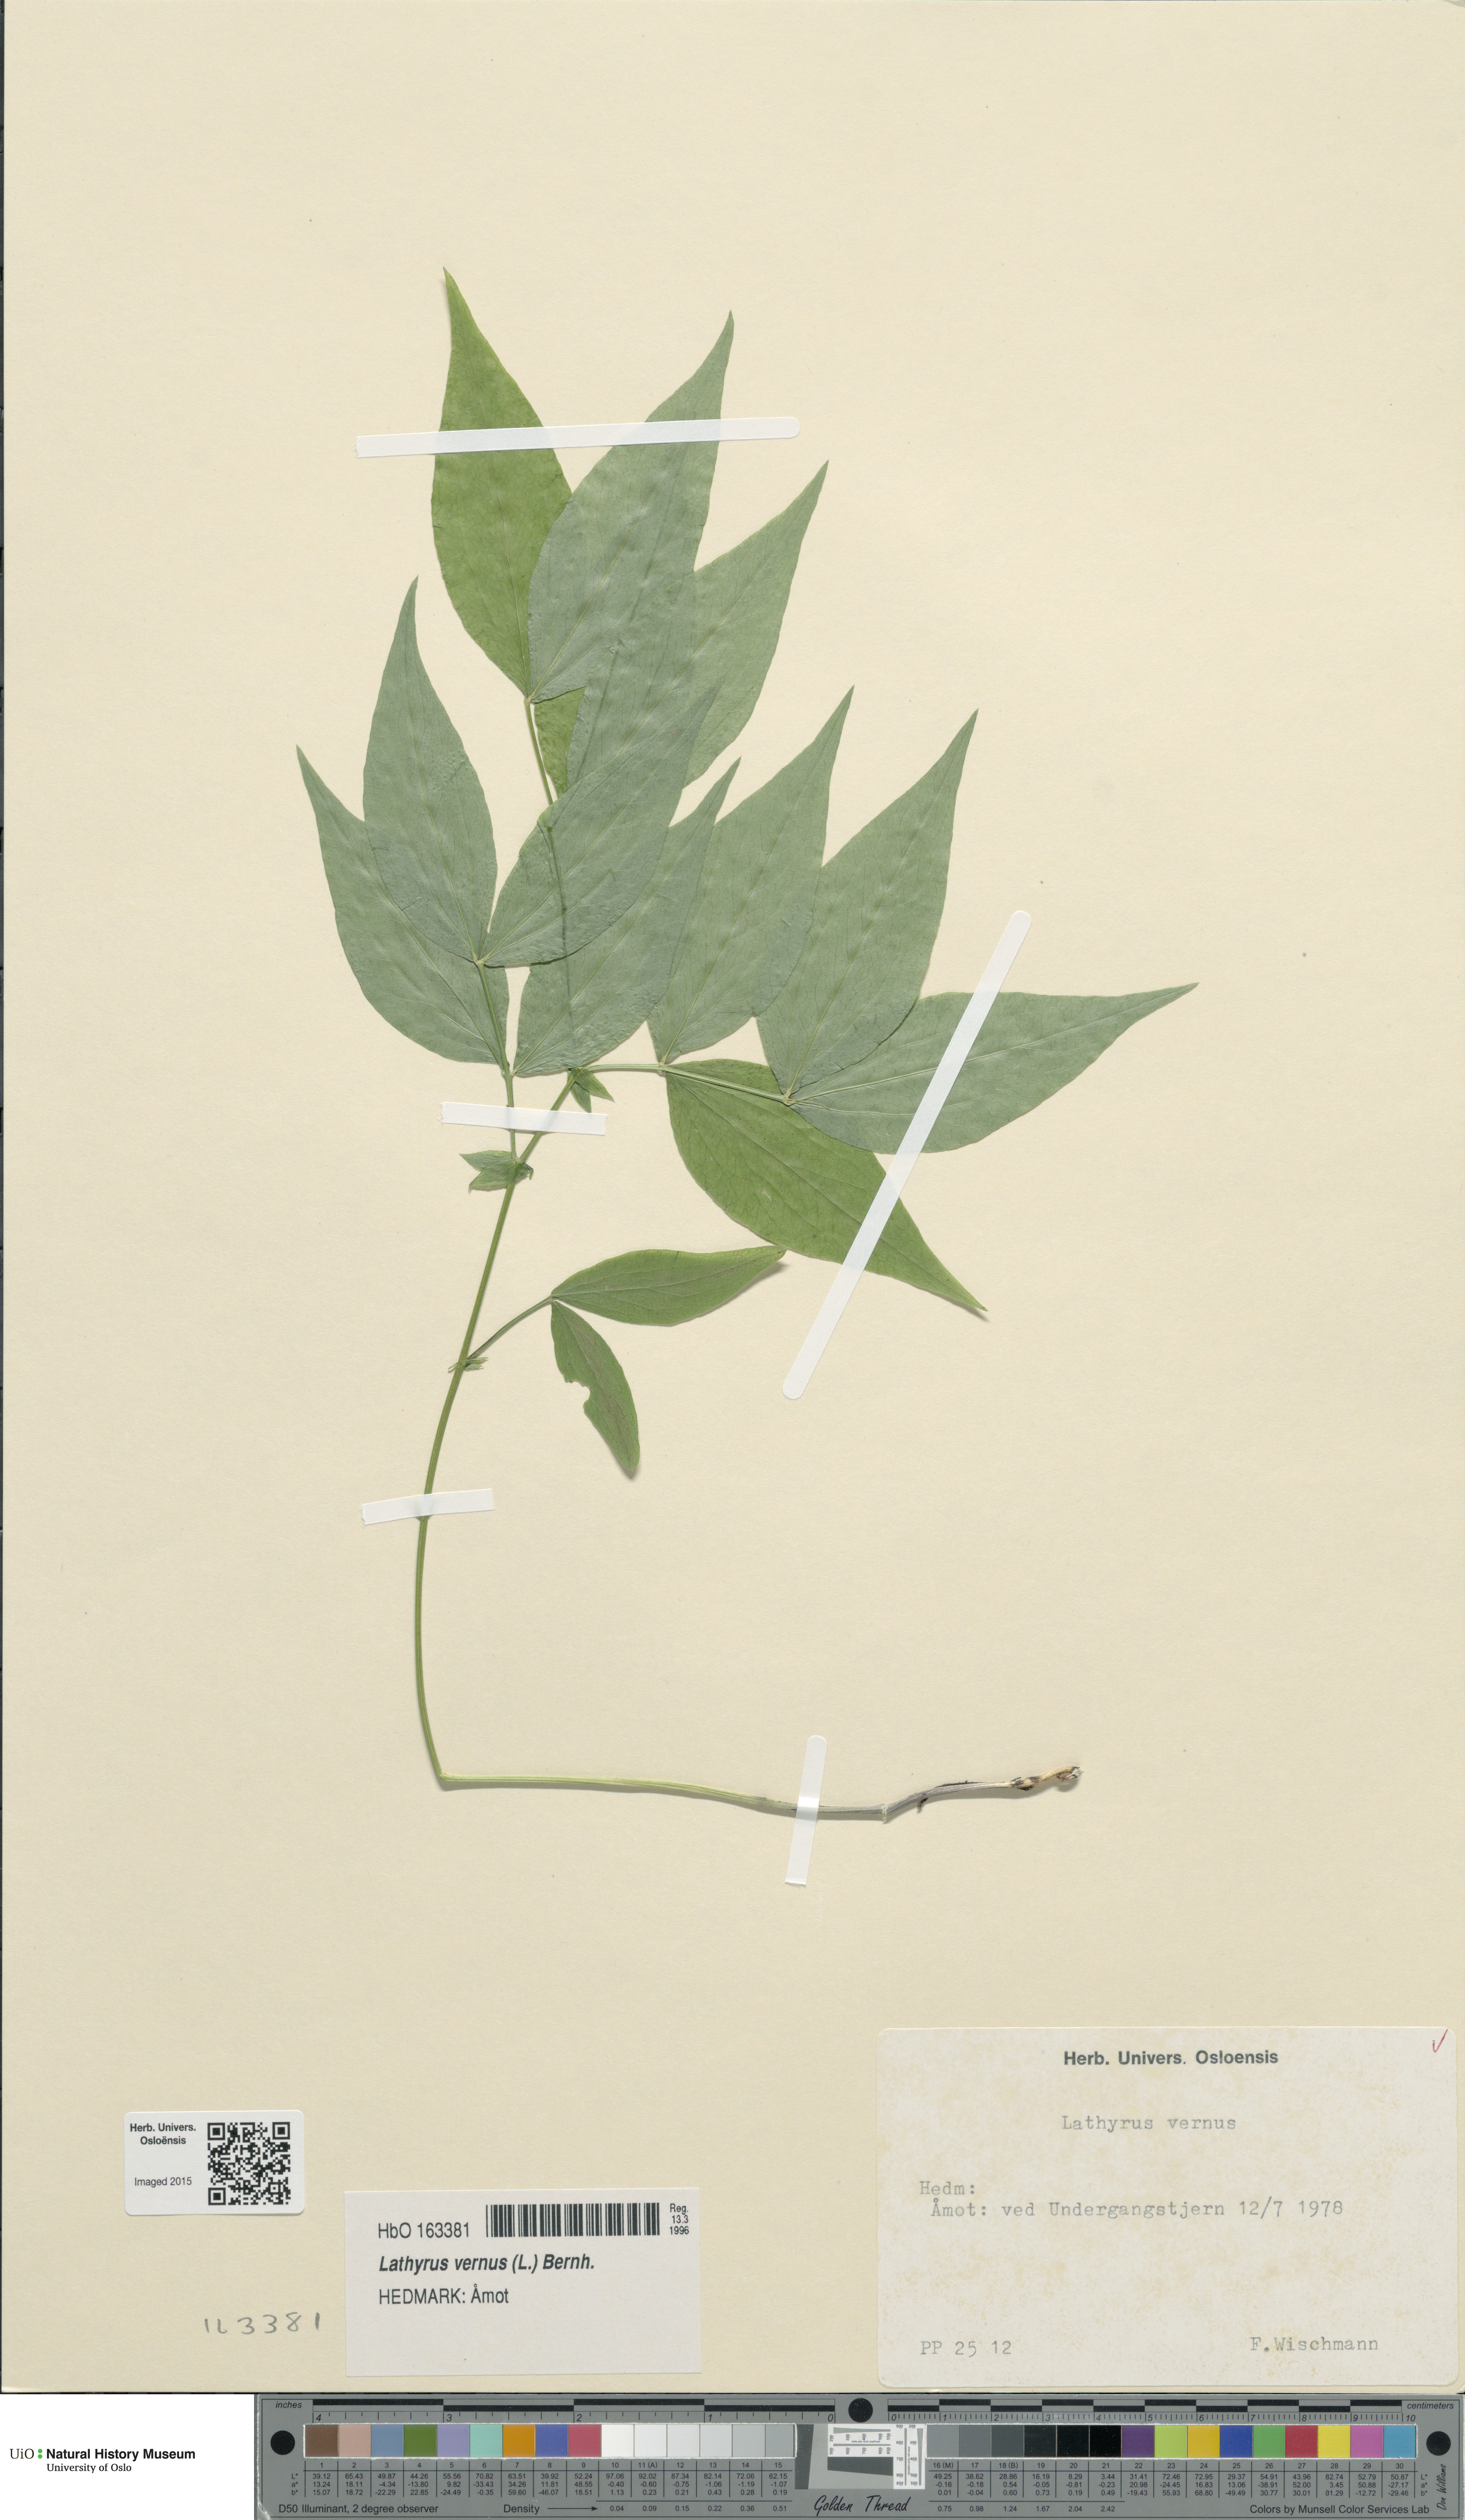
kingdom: Plantae
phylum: Tracheophyta
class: Magnoliopsida
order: Fabales
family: Fabaceae
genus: Lathyrus
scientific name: Lathyrus vernus
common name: Spring pea
